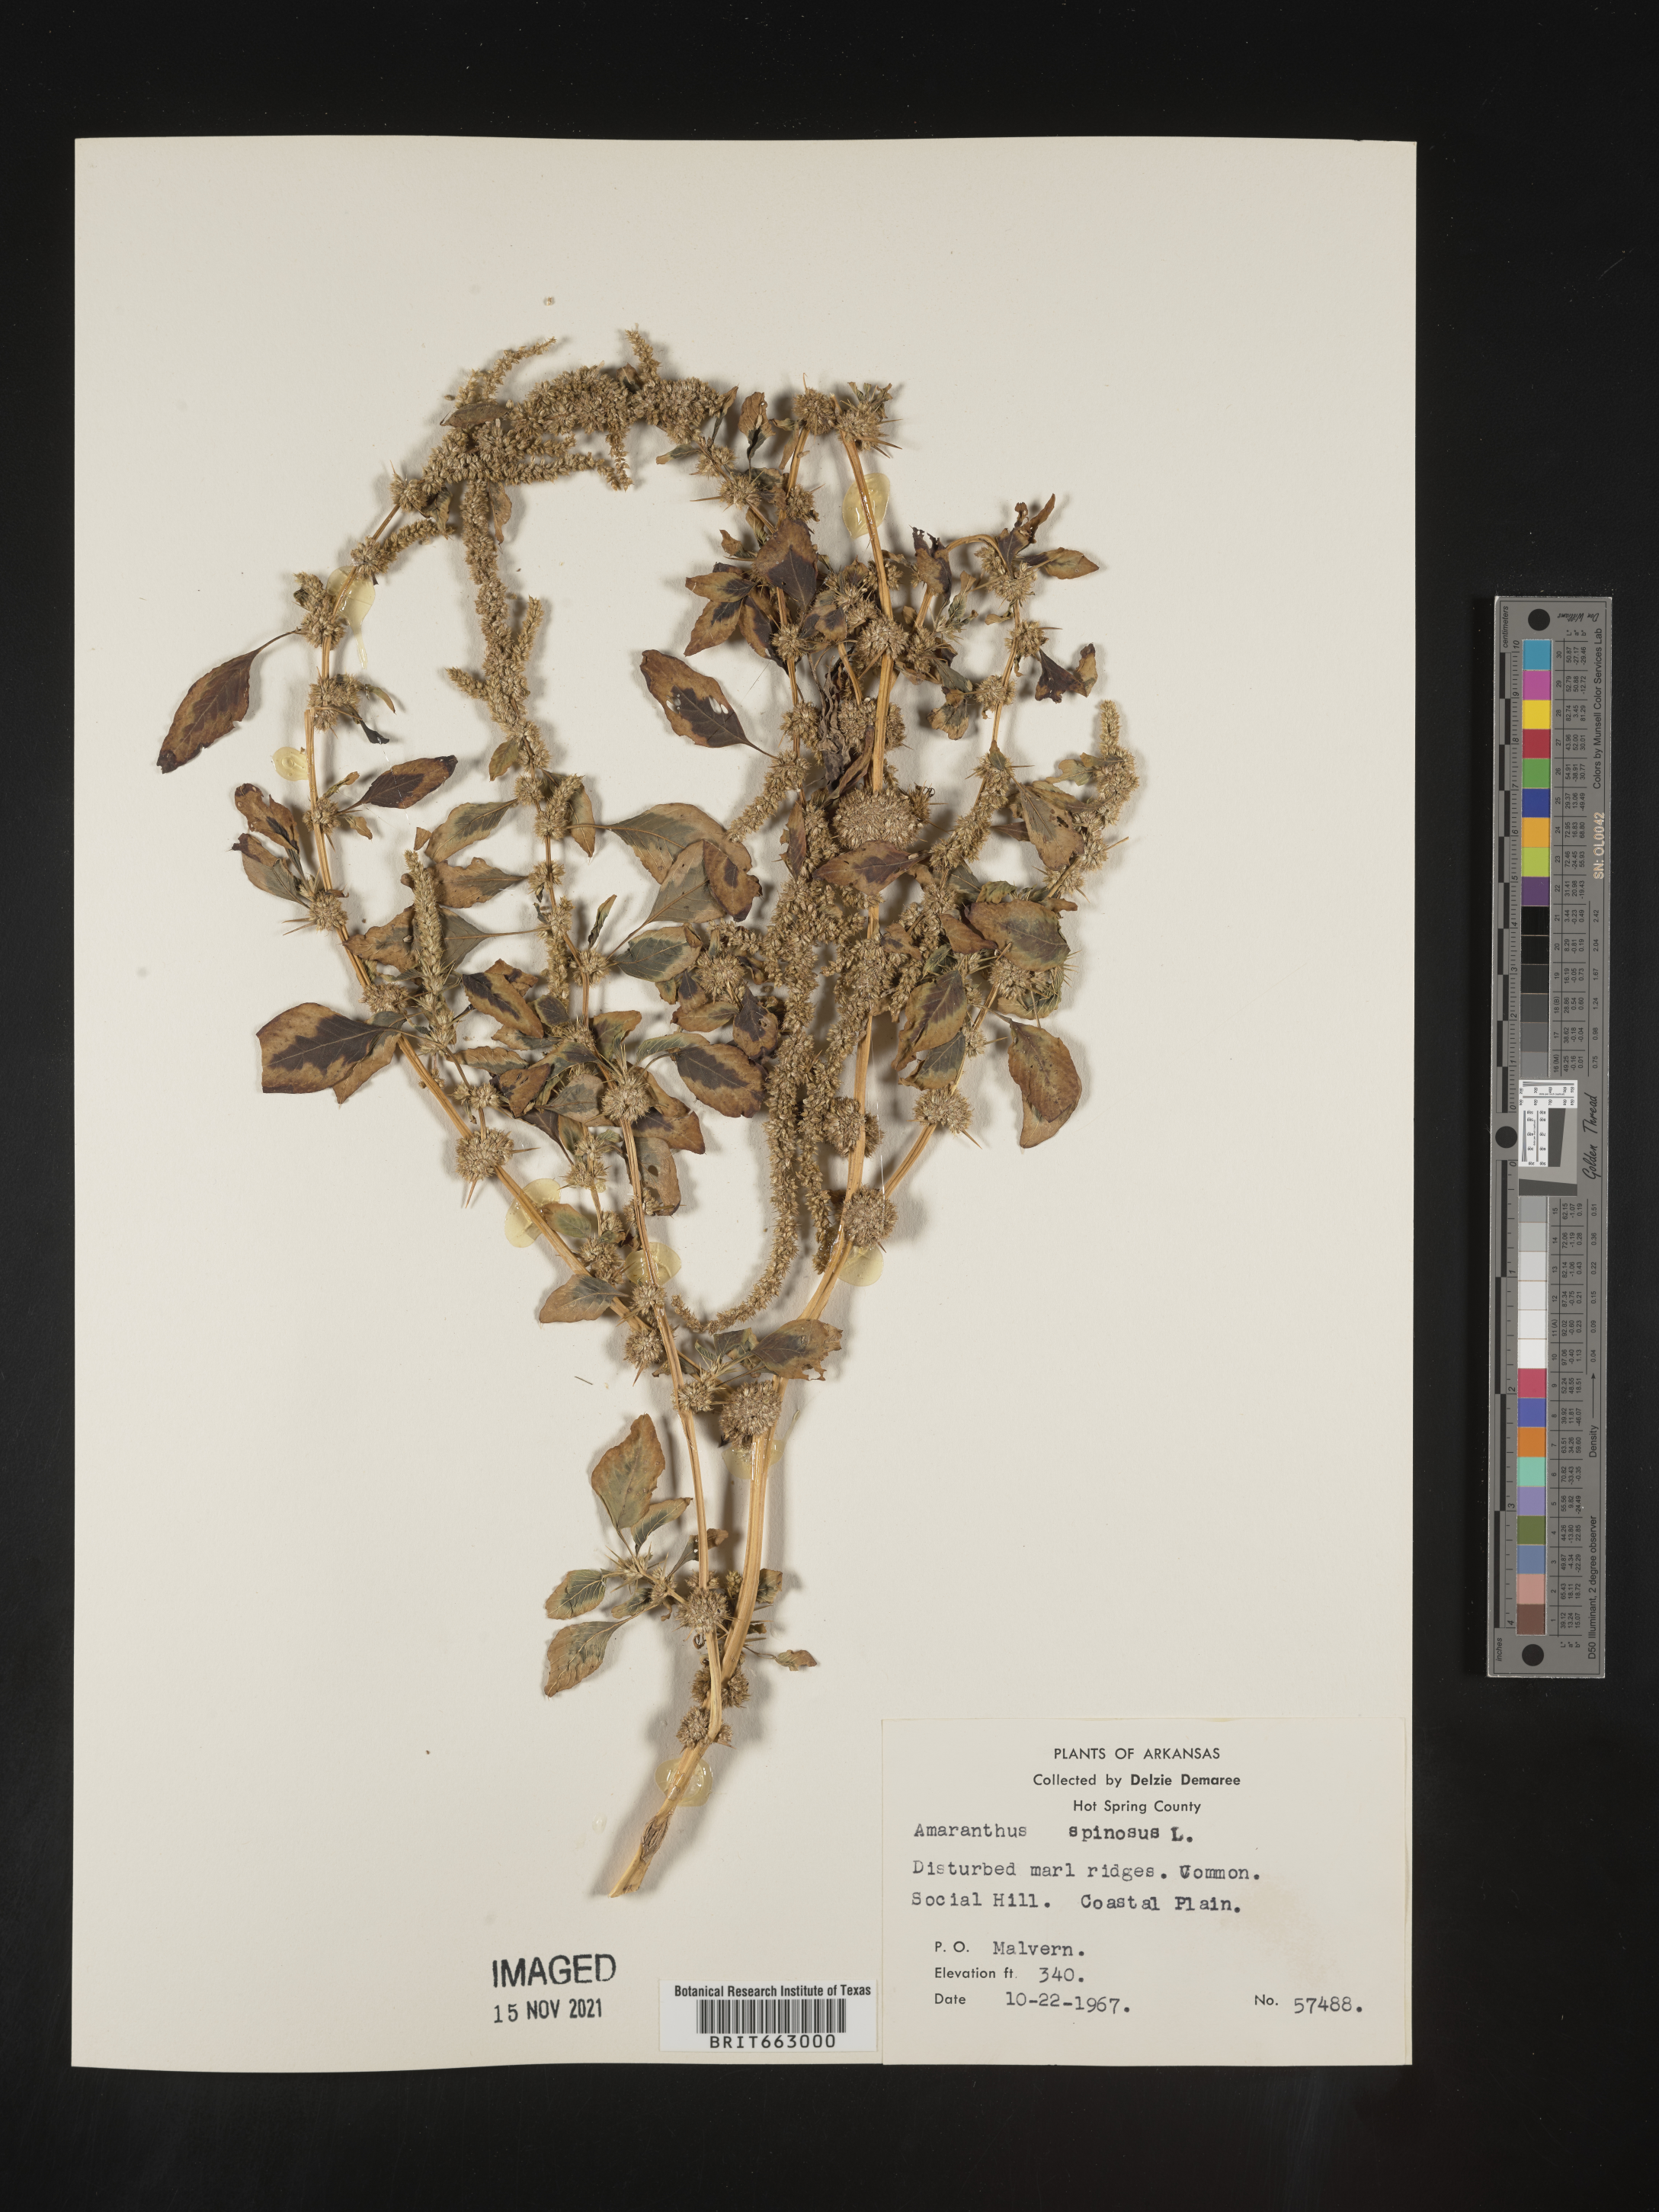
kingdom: Plantae
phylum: Tracheophyta
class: Magnoliopsida
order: Caryophyllales
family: Amaranthaceae
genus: Amaranthus
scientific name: Amaranthus spinosus
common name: Spiny amaranth
